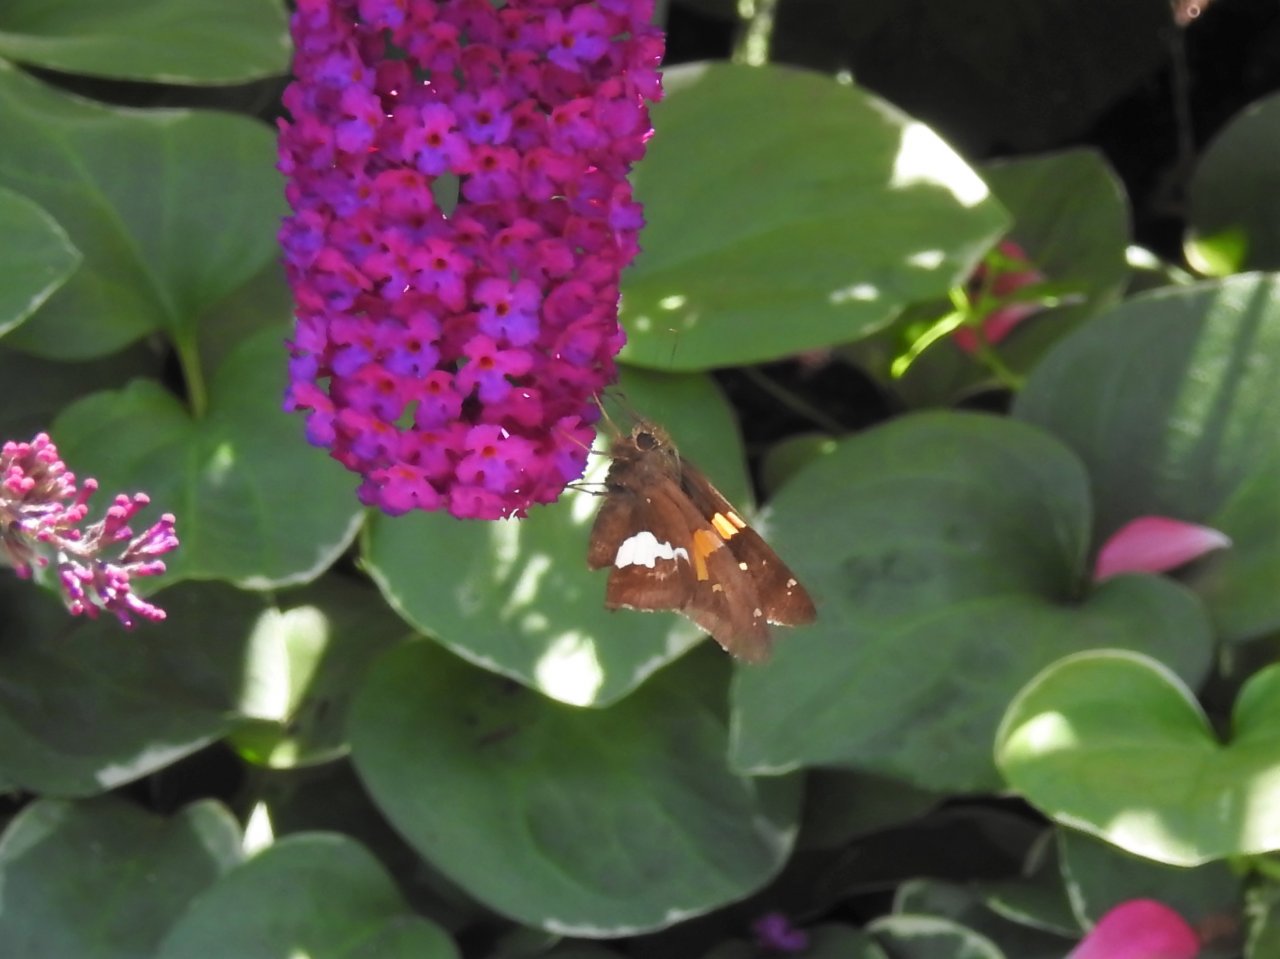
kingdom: Animalia
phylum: Arthropoda
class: Insecta
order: Lepidoptera
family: Hesperiidae
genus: Epargyreus
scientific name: Epargyreus clarus
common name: Silver-spotted Skipper
